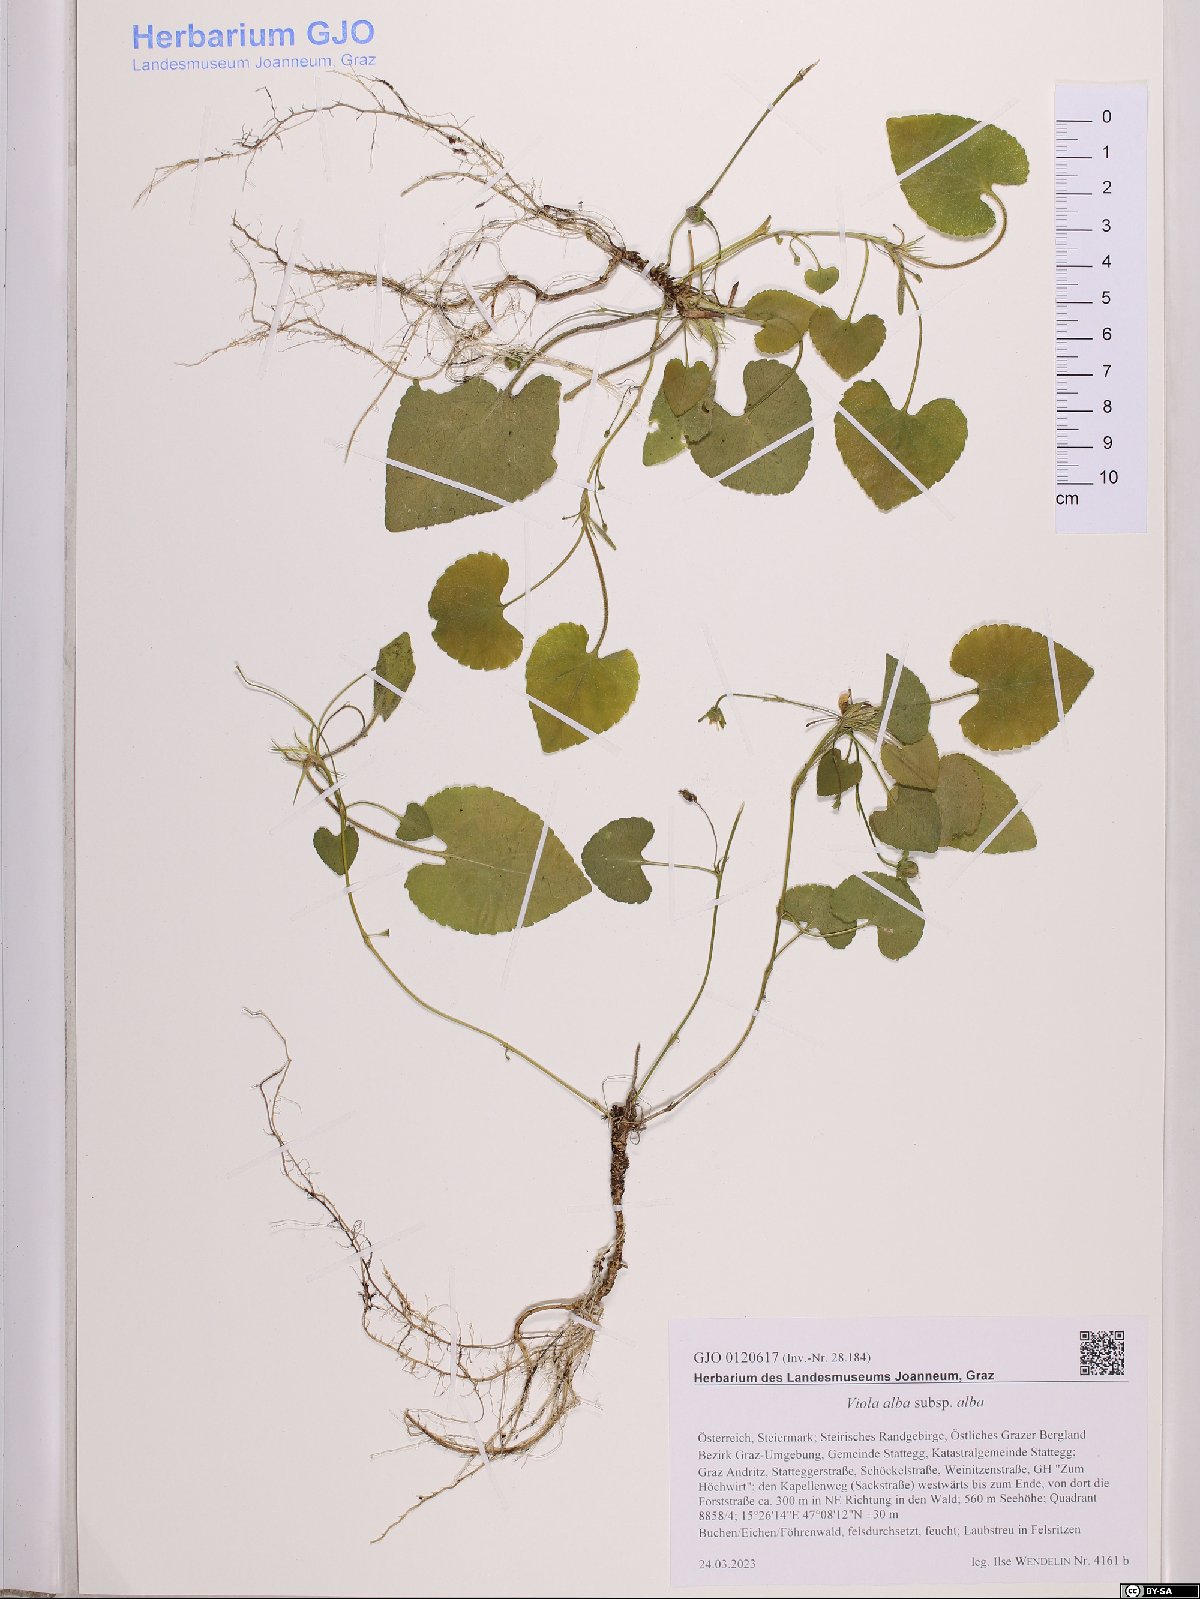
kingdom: Plantae
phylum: Tracheophyta
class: Magnoliopsida
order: Malpighiales
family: Violaceae
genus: Viola
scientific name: Viola alba
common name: White violet
